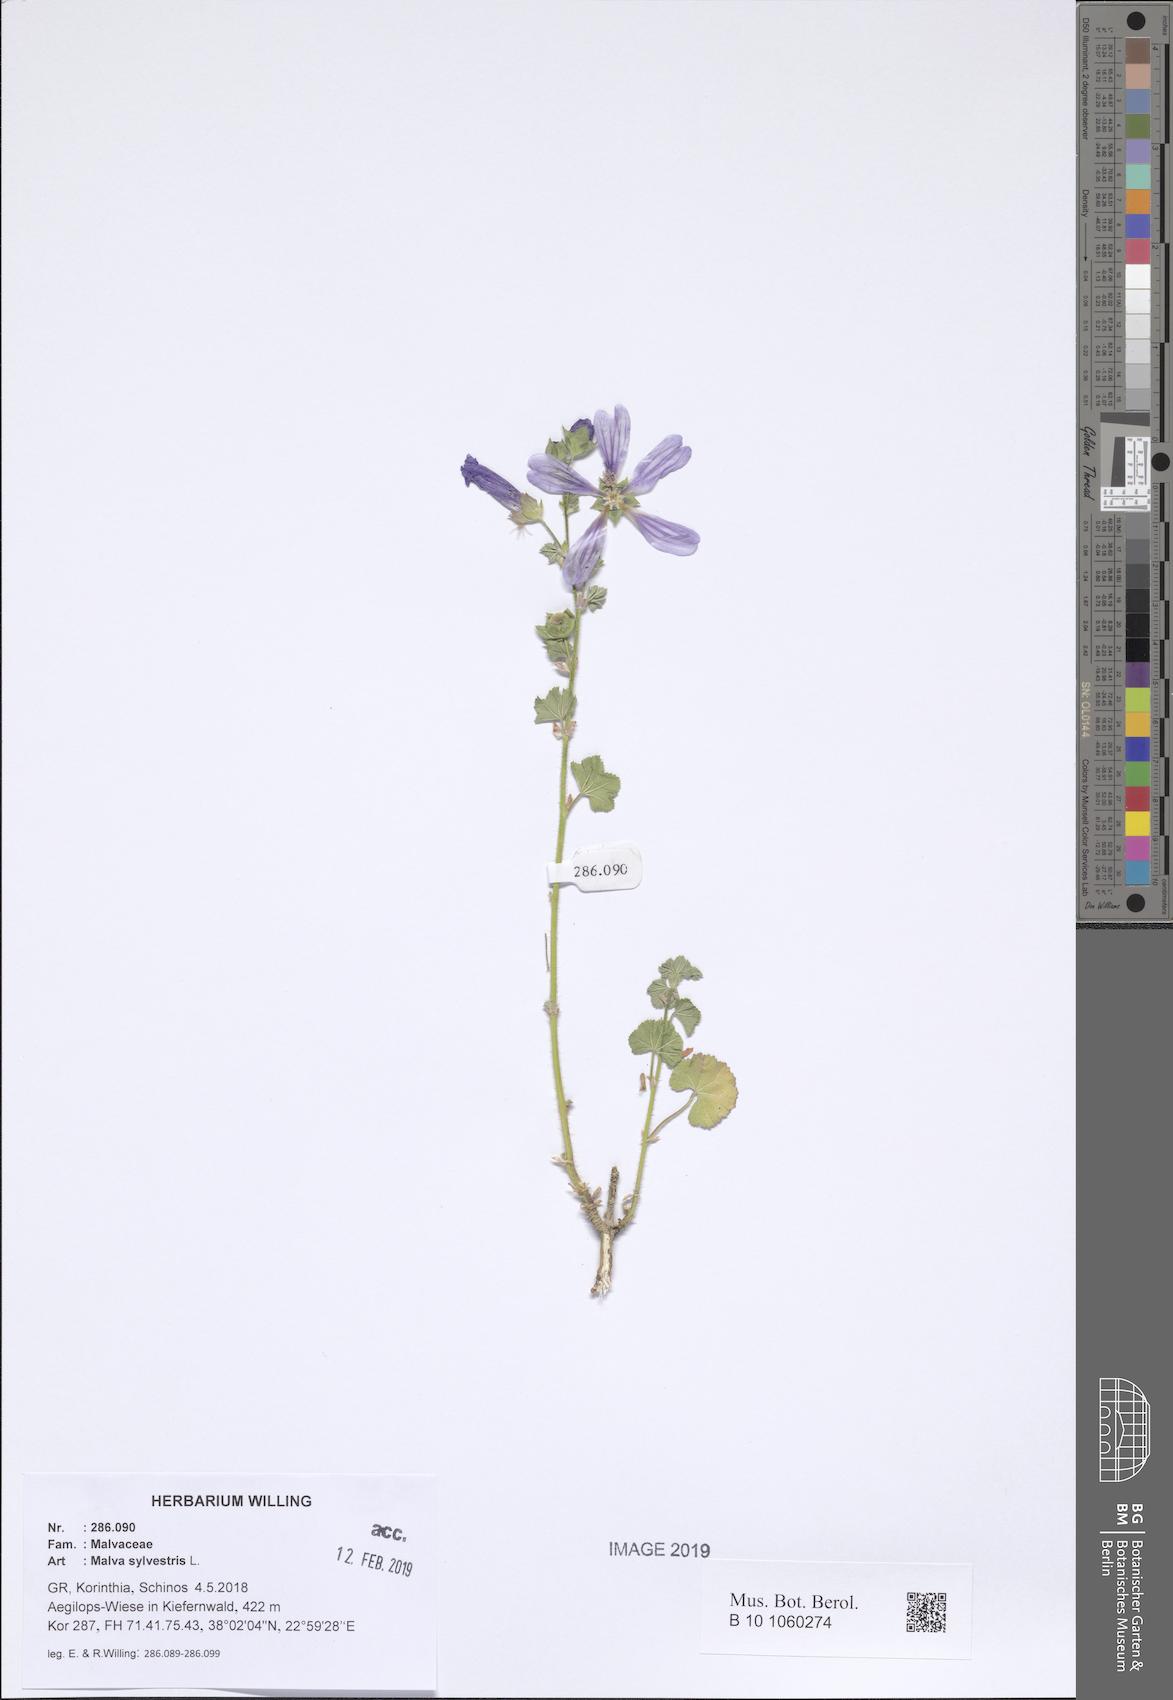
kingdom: Plantae
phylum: Tracheophyta
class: Magnoliopsida
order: Malvales
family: Malvaceae
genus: Malva
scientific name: Malva sylvestris
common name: Common mallow
